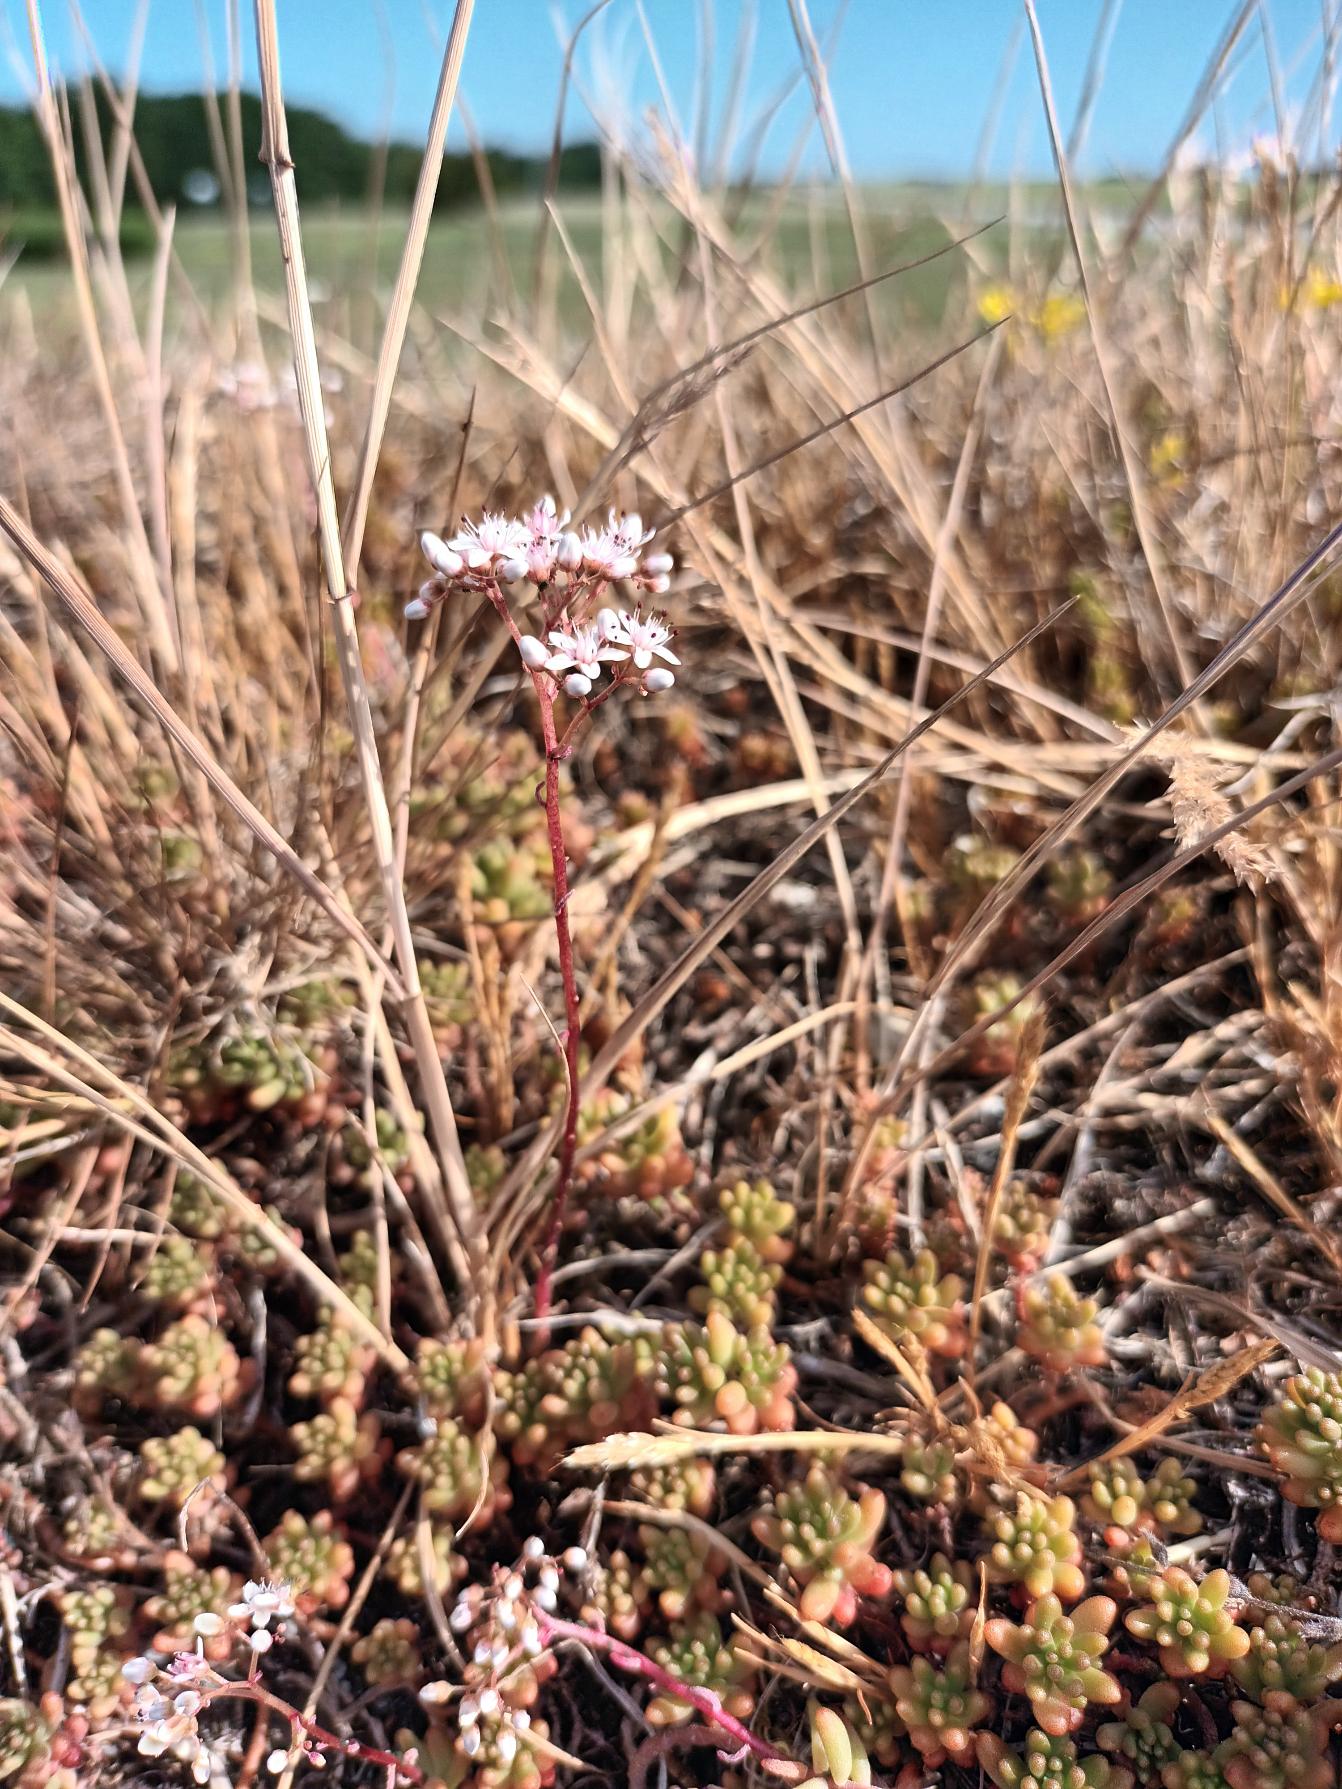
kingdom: Plantae
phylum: Tracheophyta
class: Magnoliopsida
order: Saxifragales
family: Crassulaceae
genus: Sedum
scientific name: Sedum album
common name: Hvid stenurt
